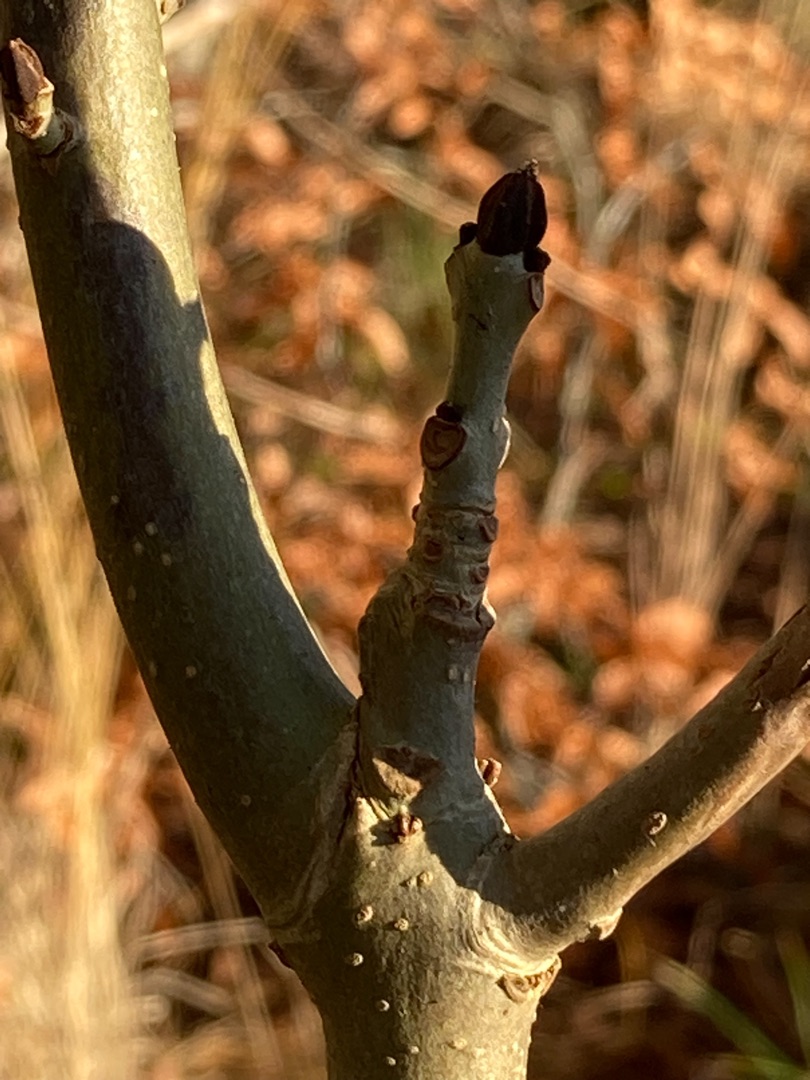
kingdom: Plantae
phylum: Tracheophyta
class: Magnoliopsida
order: Lamiales
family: Oleaceae
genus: Fraxinus
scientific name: Fraxinus excelsior
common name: Ask
